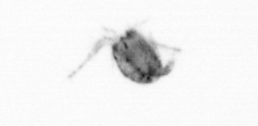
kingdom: Animalia
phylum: Arthropoda
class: Copepoda
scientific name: Copepoda
